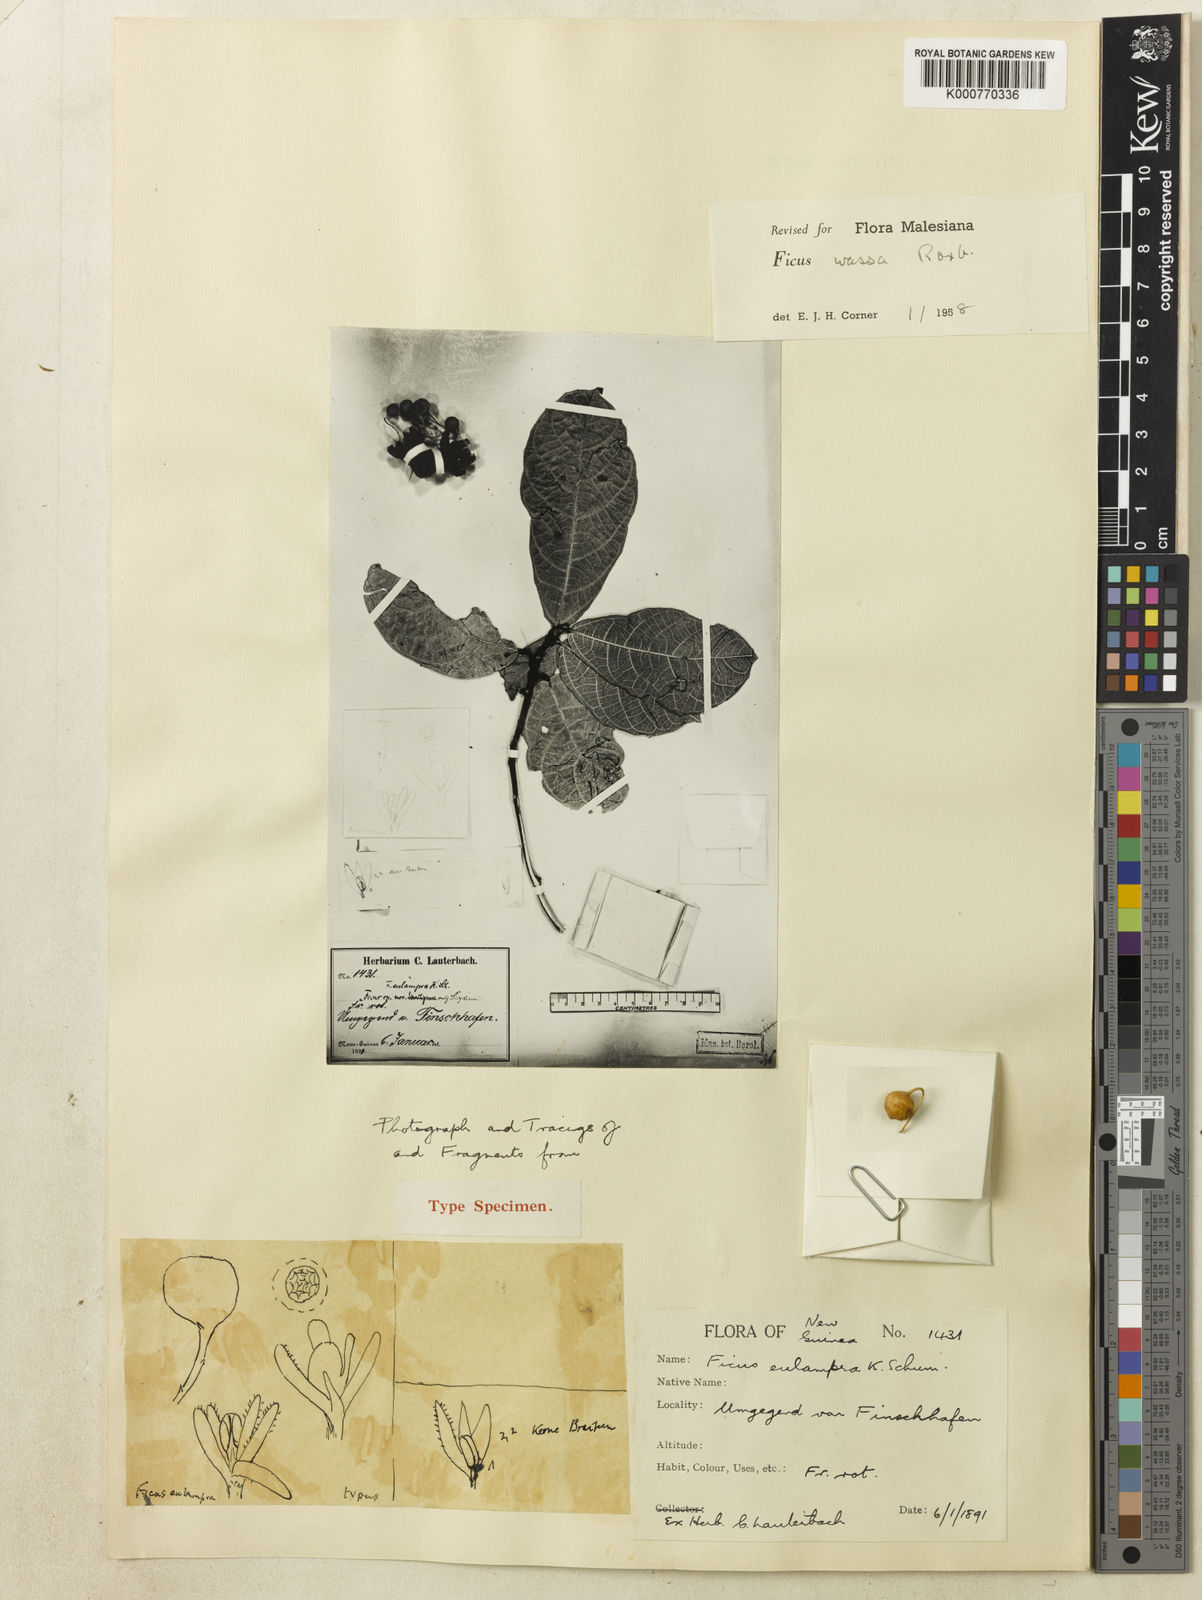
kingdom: Plantae
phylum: Tracheophyta
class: Magnoliopsida
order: Rosales
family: Moraceae
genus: Ficus
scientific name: Ficus wassa
